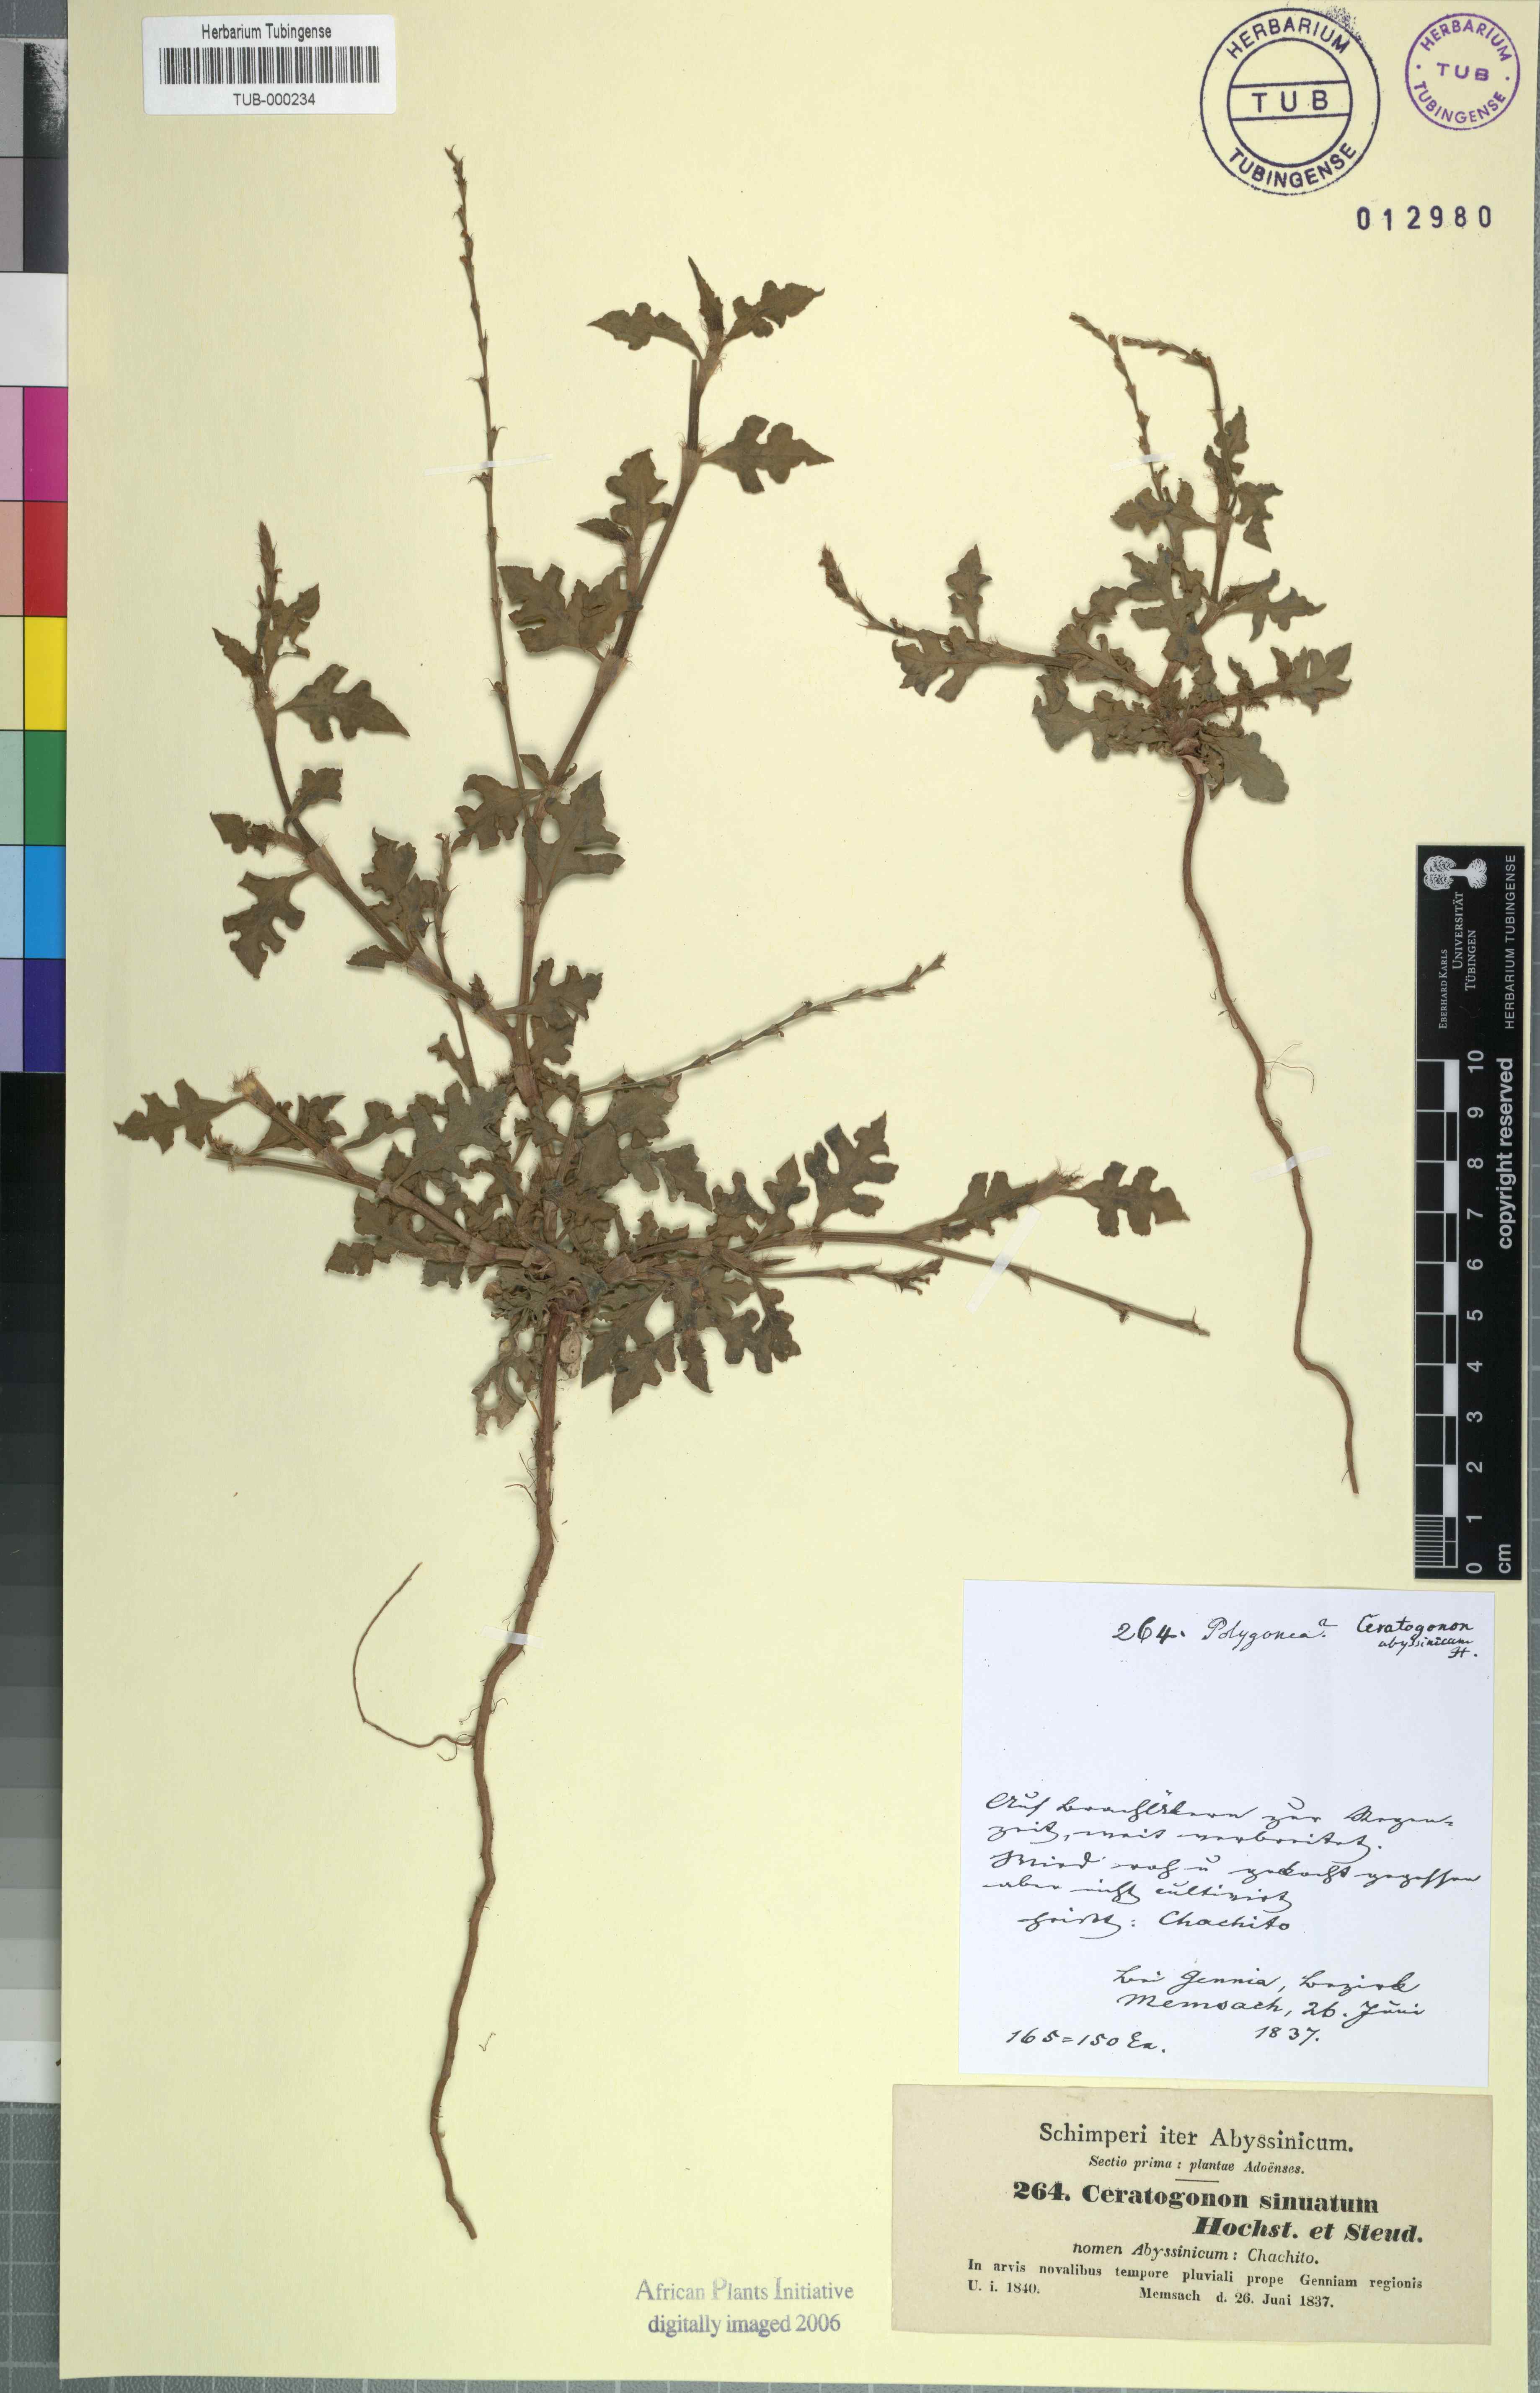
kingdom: Plantae
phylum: Tracheophyta
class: Magnoliopsida
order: Caryophyllales
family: Polygonaceae
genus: Oxygonum
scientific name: Oxygonum sinuatum
